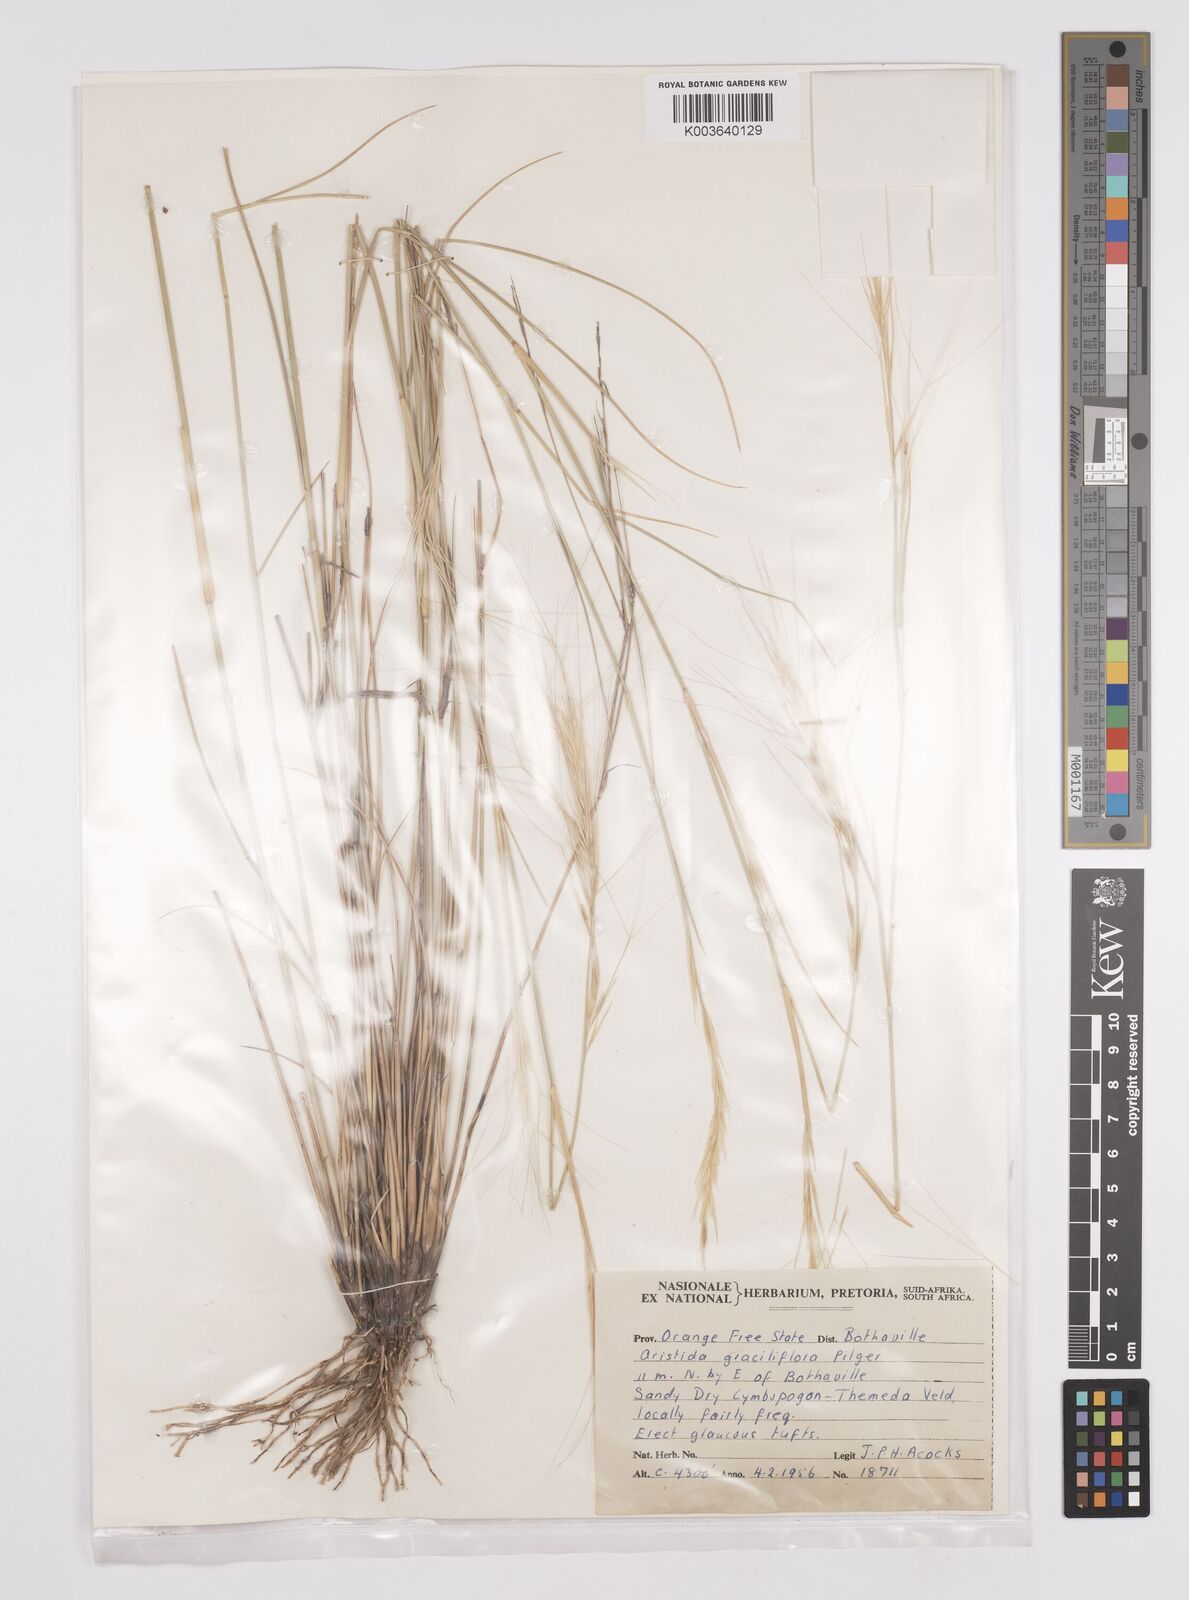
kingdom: Plantae
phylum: Tracheophyta
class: Liliopsida
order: Poales
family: Poaceae
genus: Aristida
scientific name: Aristida stipitata
